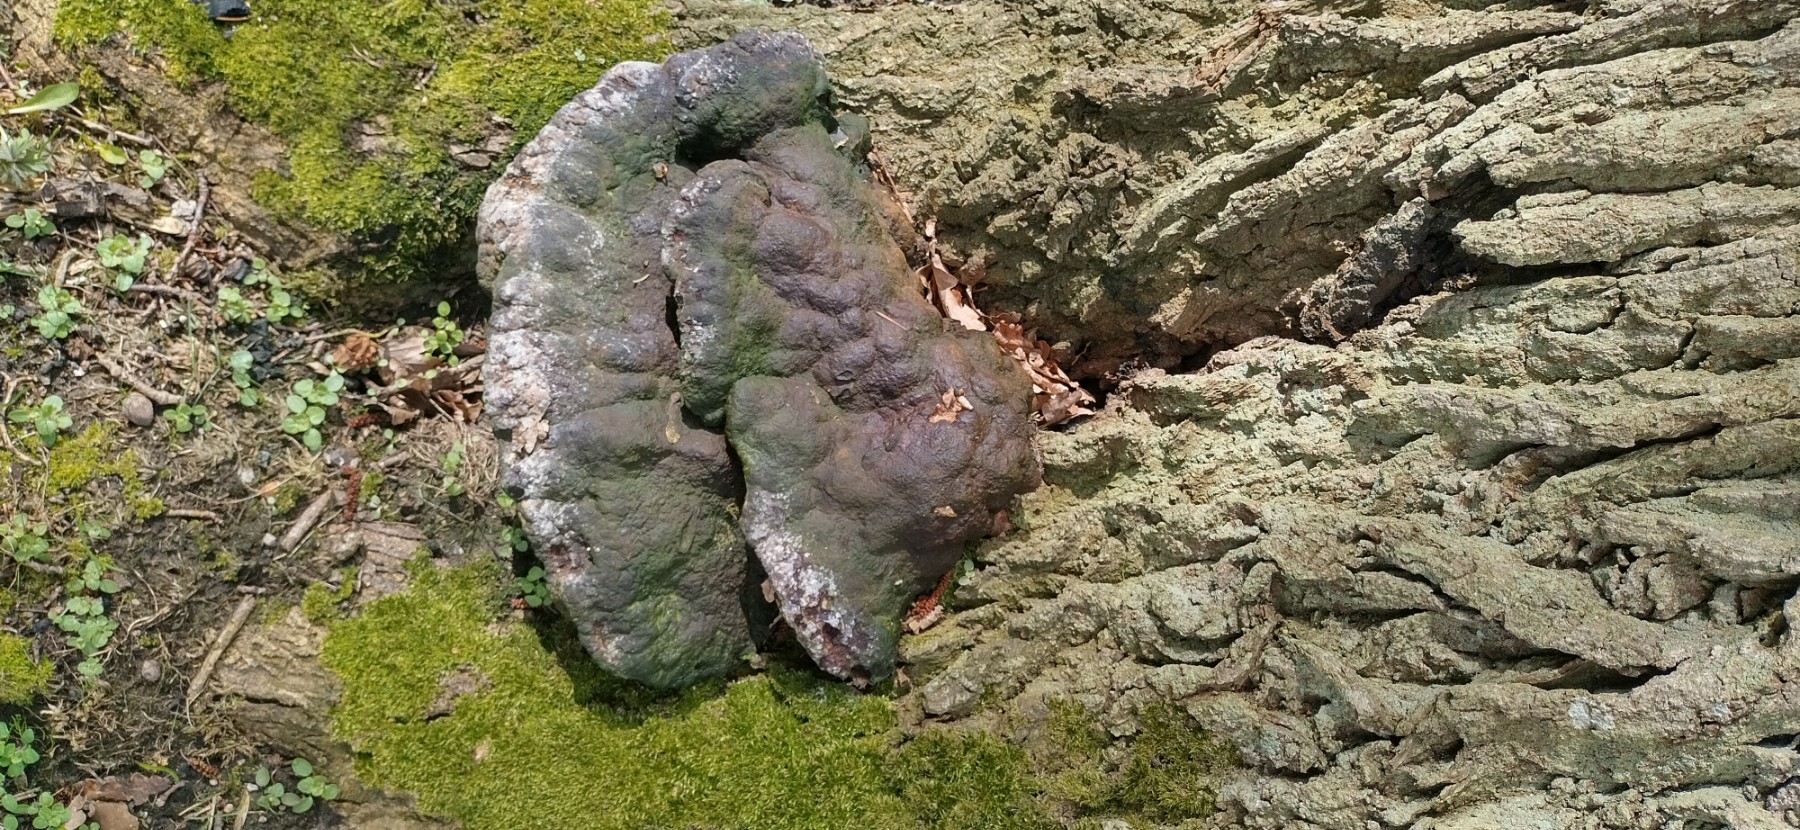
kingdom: Fungi
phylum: Basidiomycota
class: Agaricomycetes
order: Hymenochaetales
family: Hymenochaetaceae
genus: Pseudoinonotus
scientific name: Pseudoinonotus dryadeus
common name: ege-spejlporesvamp
